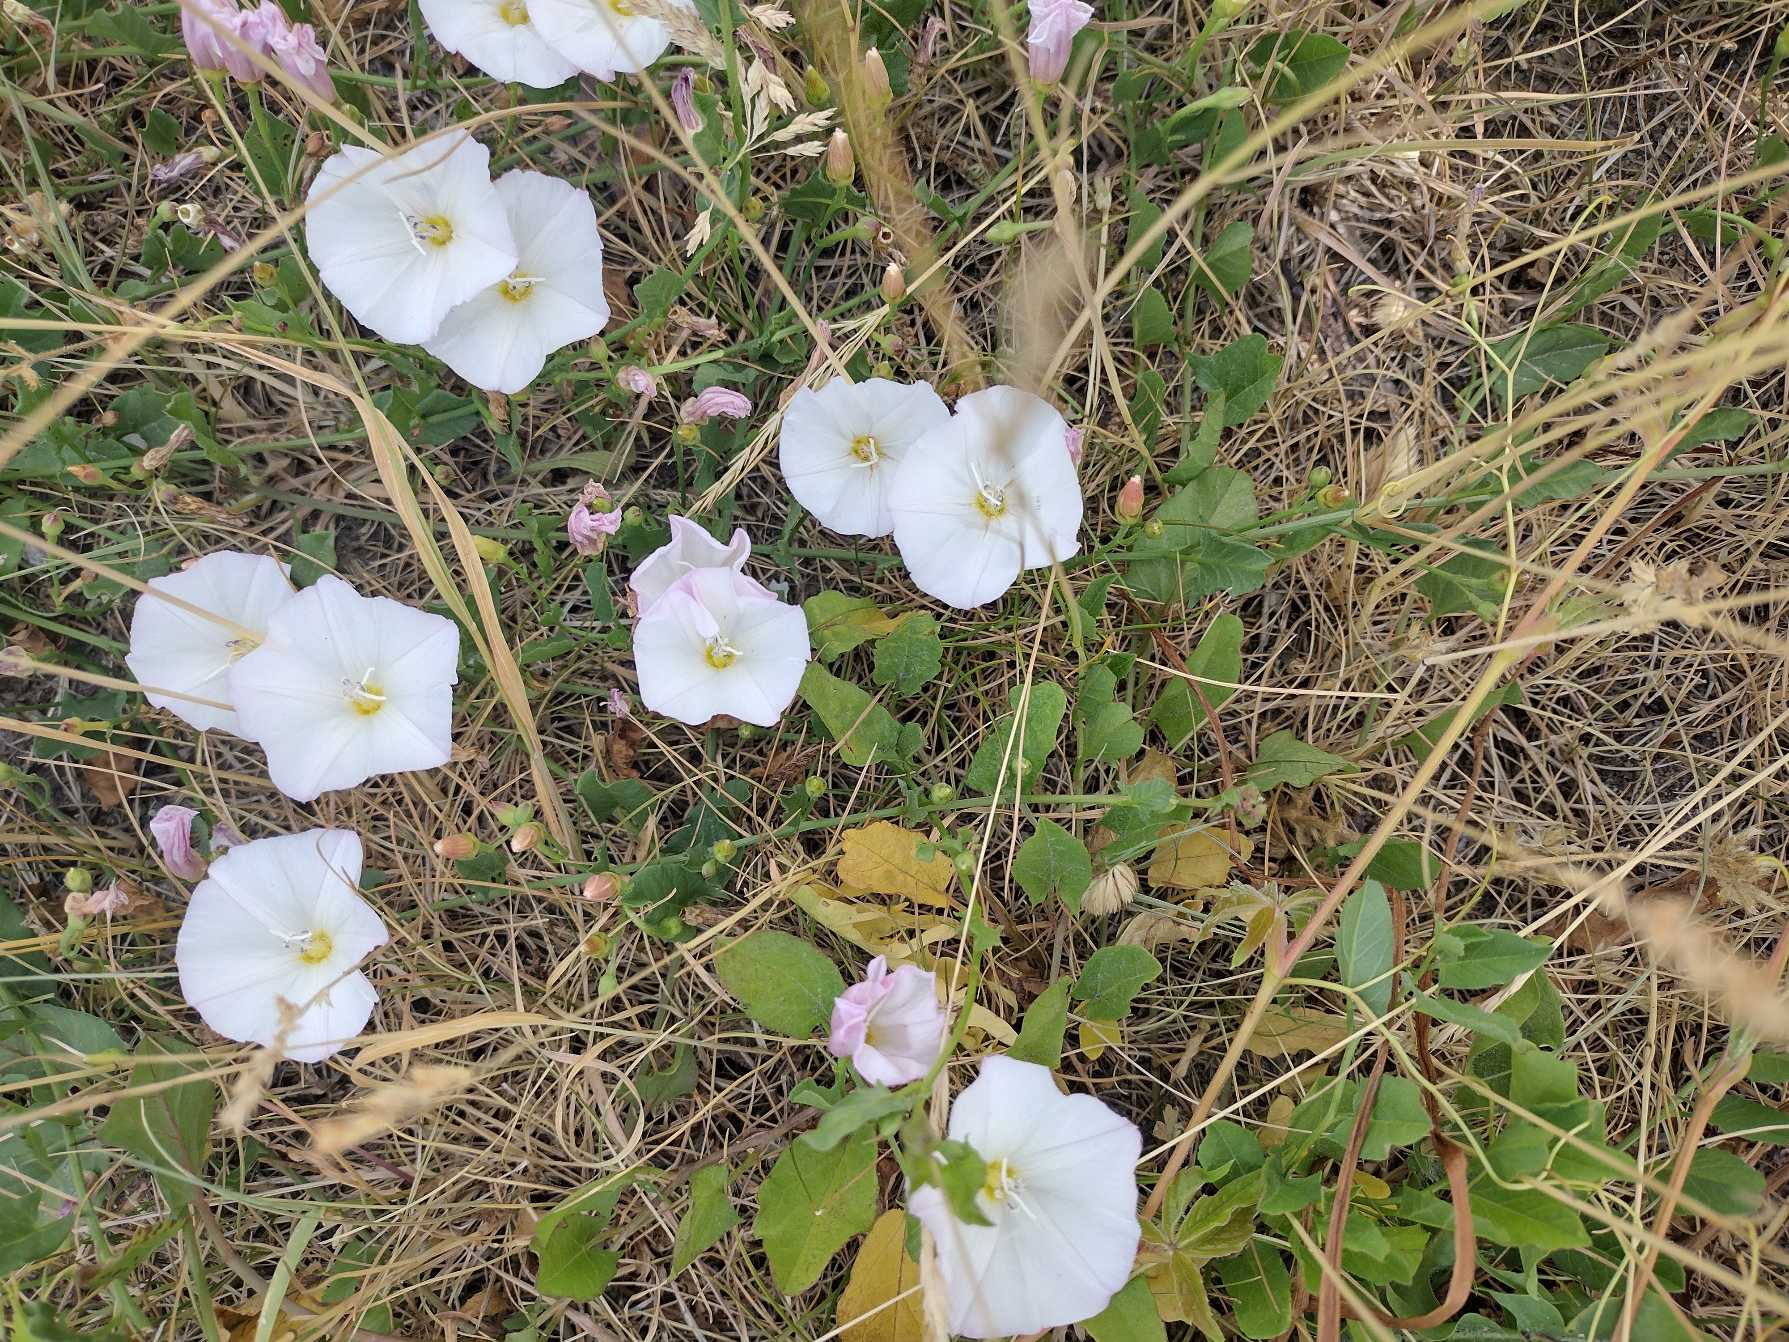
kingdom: Plantae
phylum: Tracheophyta
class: Magnoliopsida
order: Solanales
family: Convolvulaceae
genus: Convolvulus
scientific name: Convolvulus arvensis
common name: Ager-snerle
